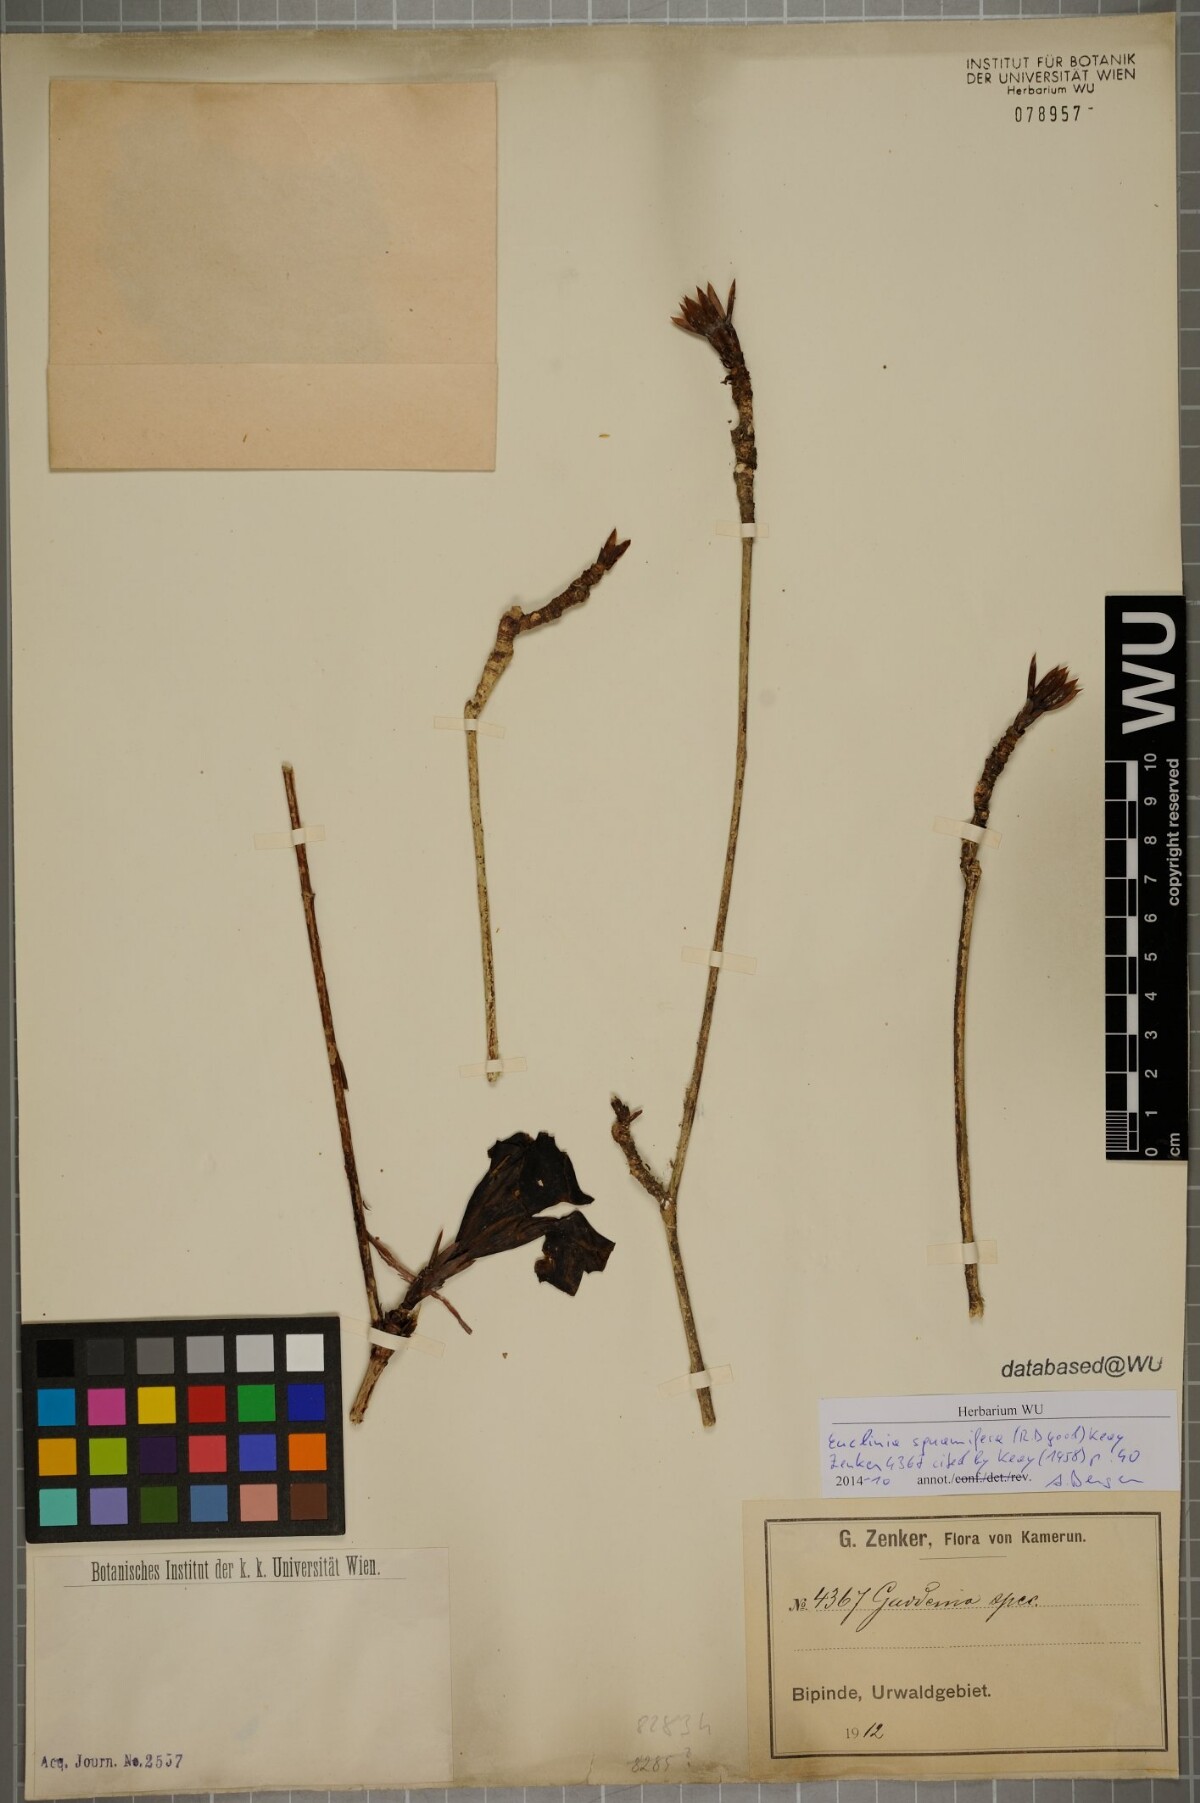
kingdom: Plantae
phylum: Tracheophyta
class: Magnoliopsida
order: Gentianales
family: Rubiaceae
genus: Euclinia
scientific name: Euclinia squamifera
